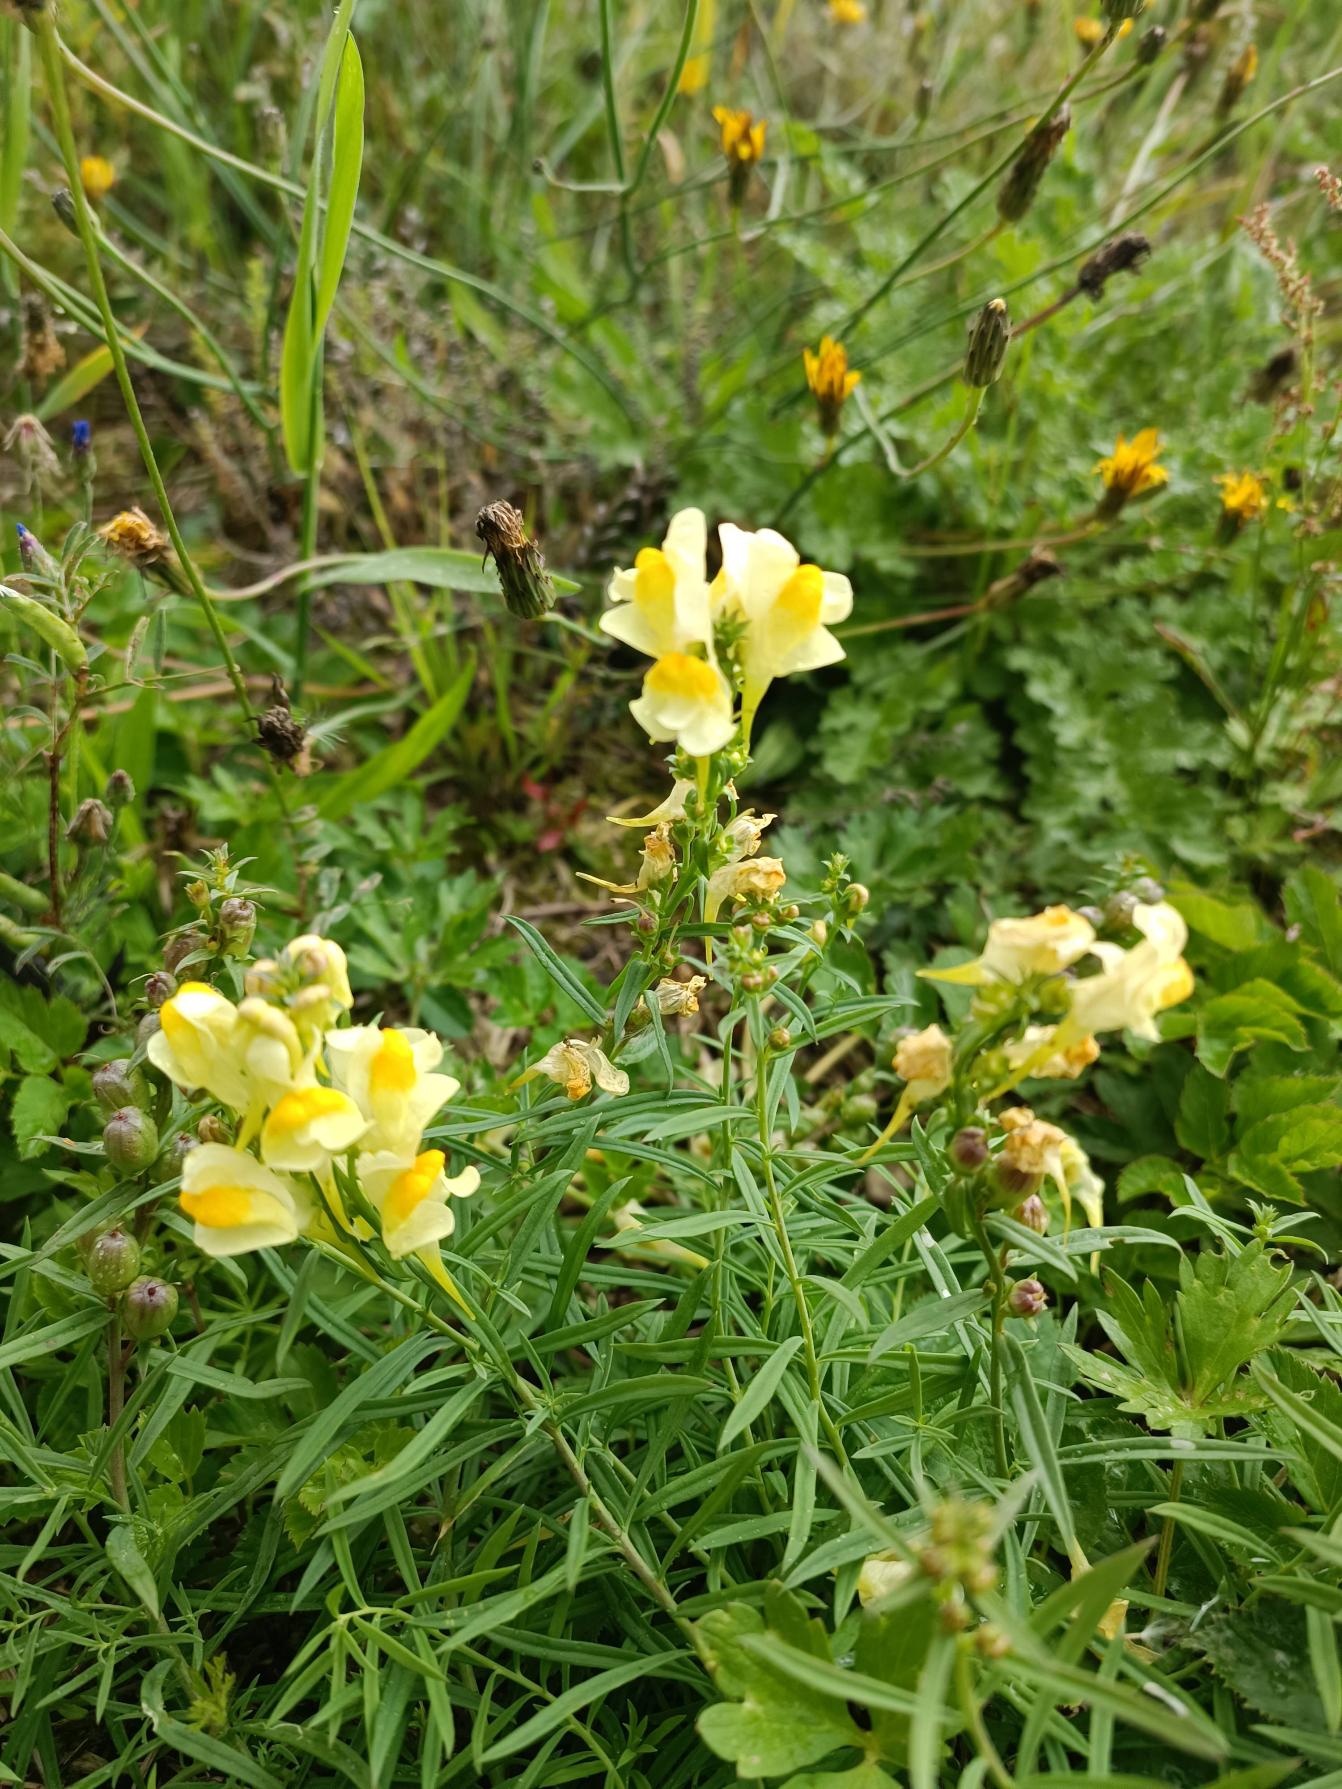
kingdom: Plantae
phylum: Tracheophyta
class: Magnoliopsida
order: Lamiales
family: Plantaginaceae
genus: Linaria
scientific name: Linaria vulgaris
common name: Almindelig torskemund
